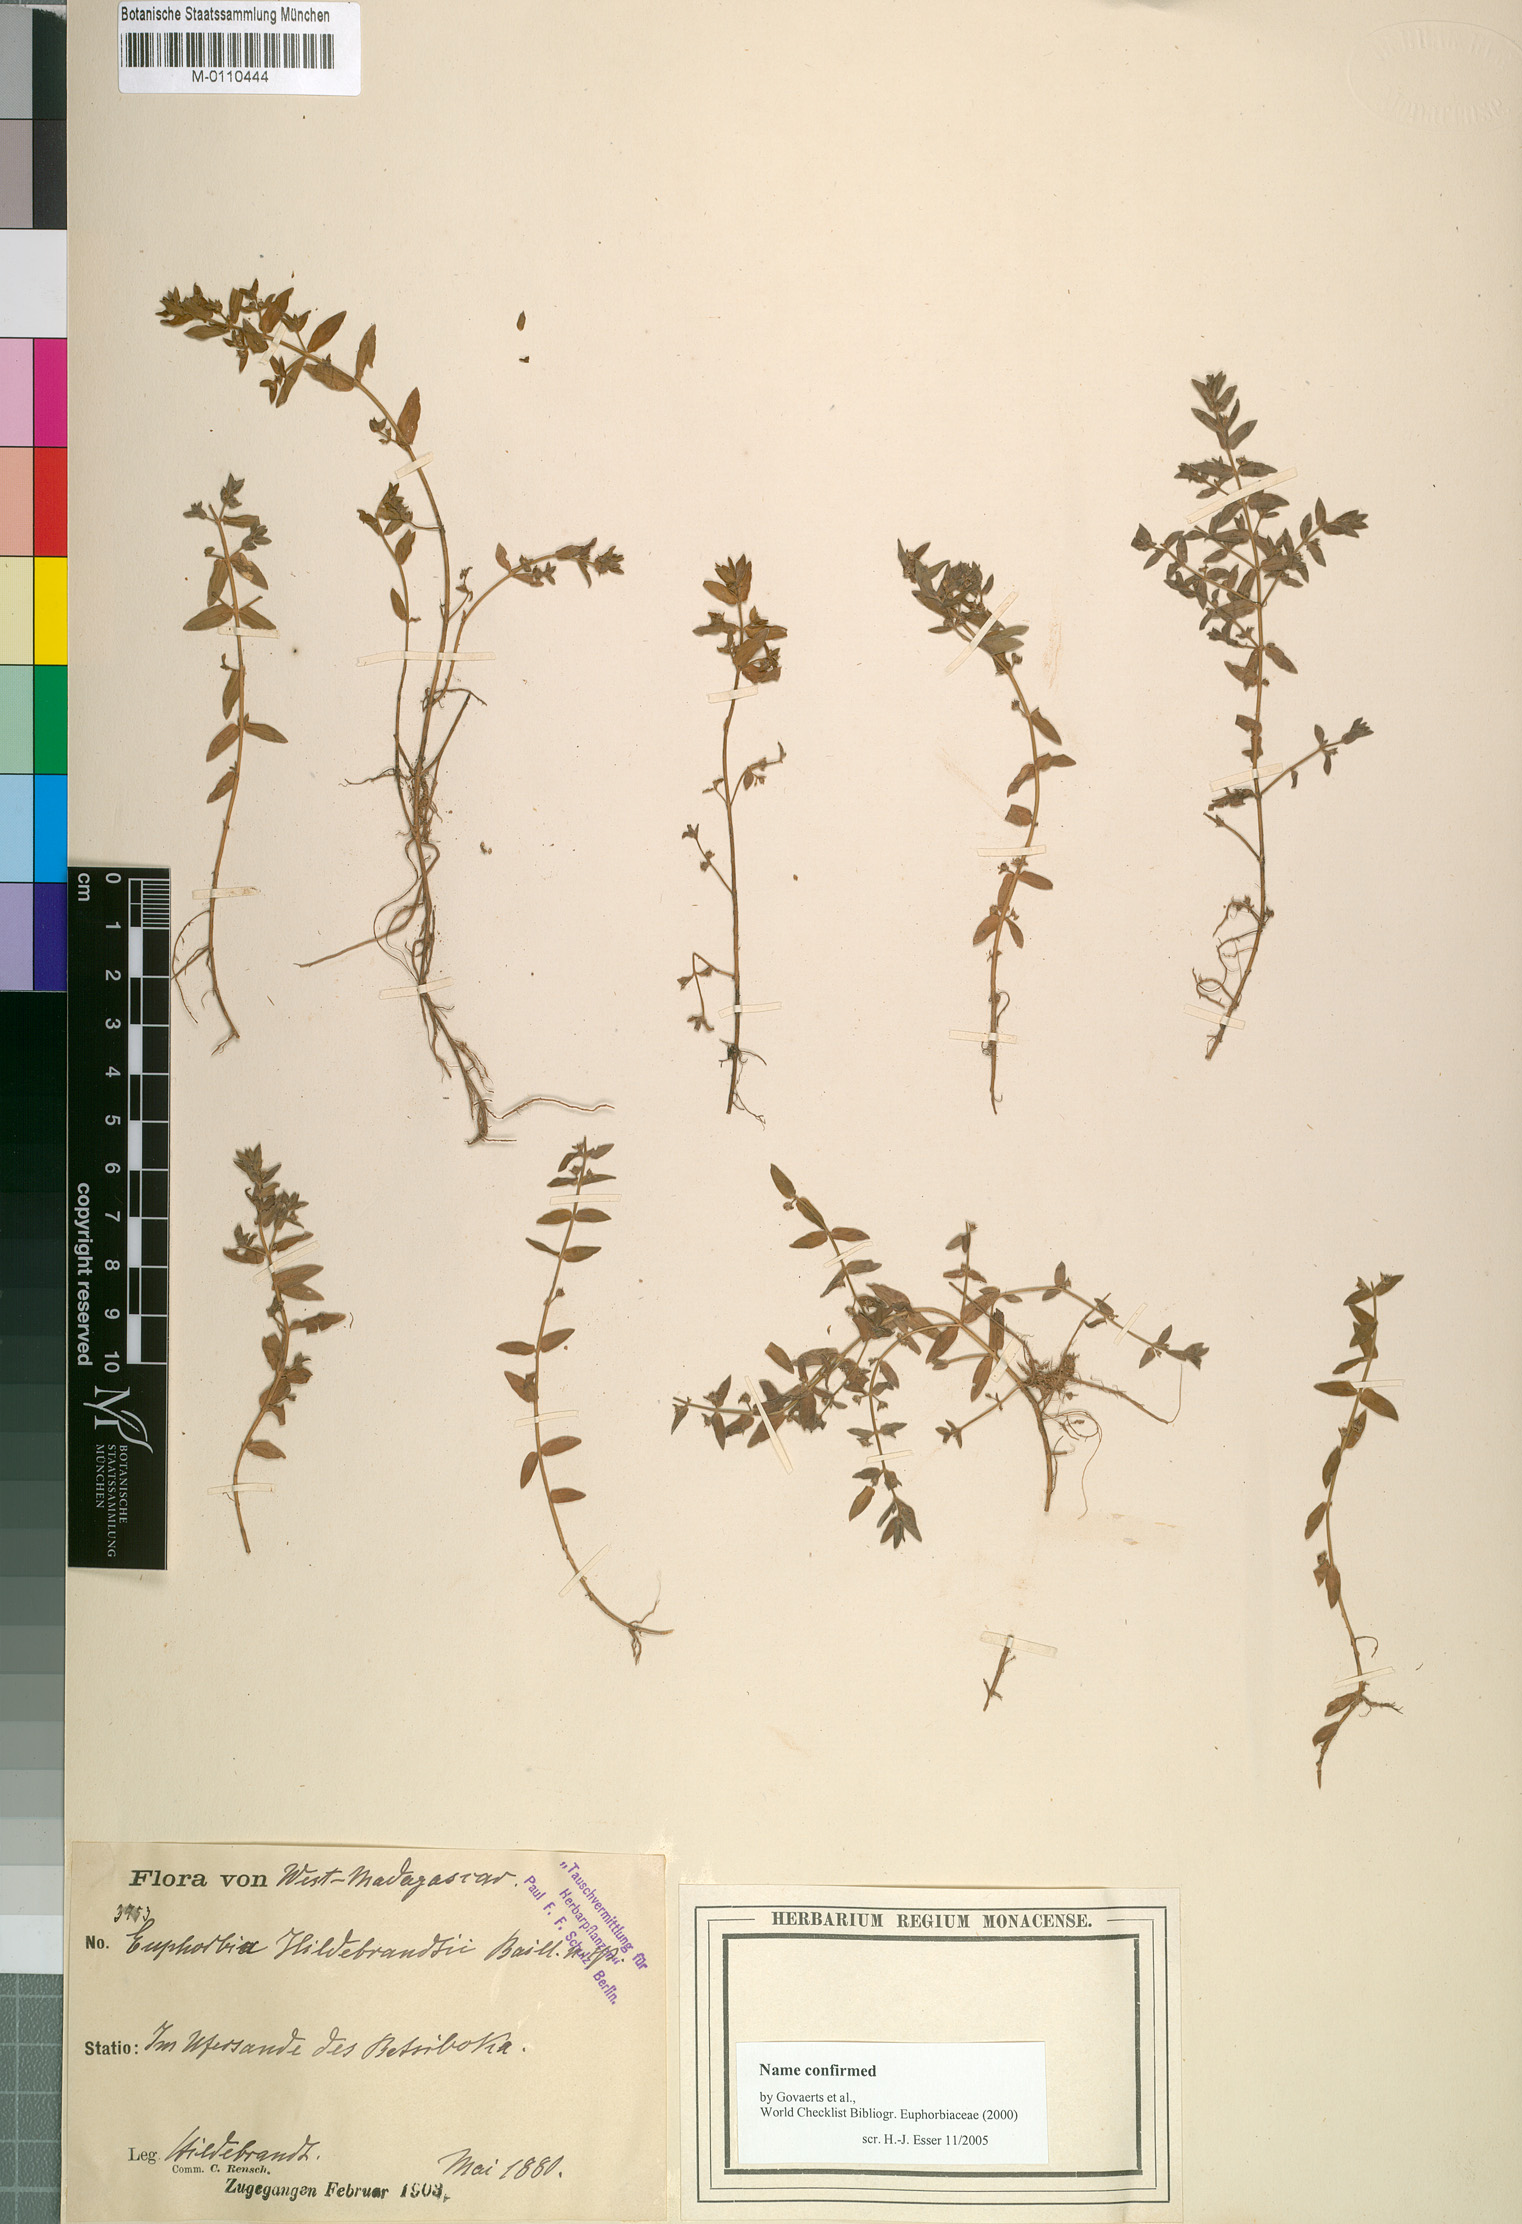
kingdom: Plantae
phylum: Tracheophyta
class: Magnoliopsida
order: Myrtales
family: Lythraceae
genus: Ammannia
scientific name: Ammannia pubescens
